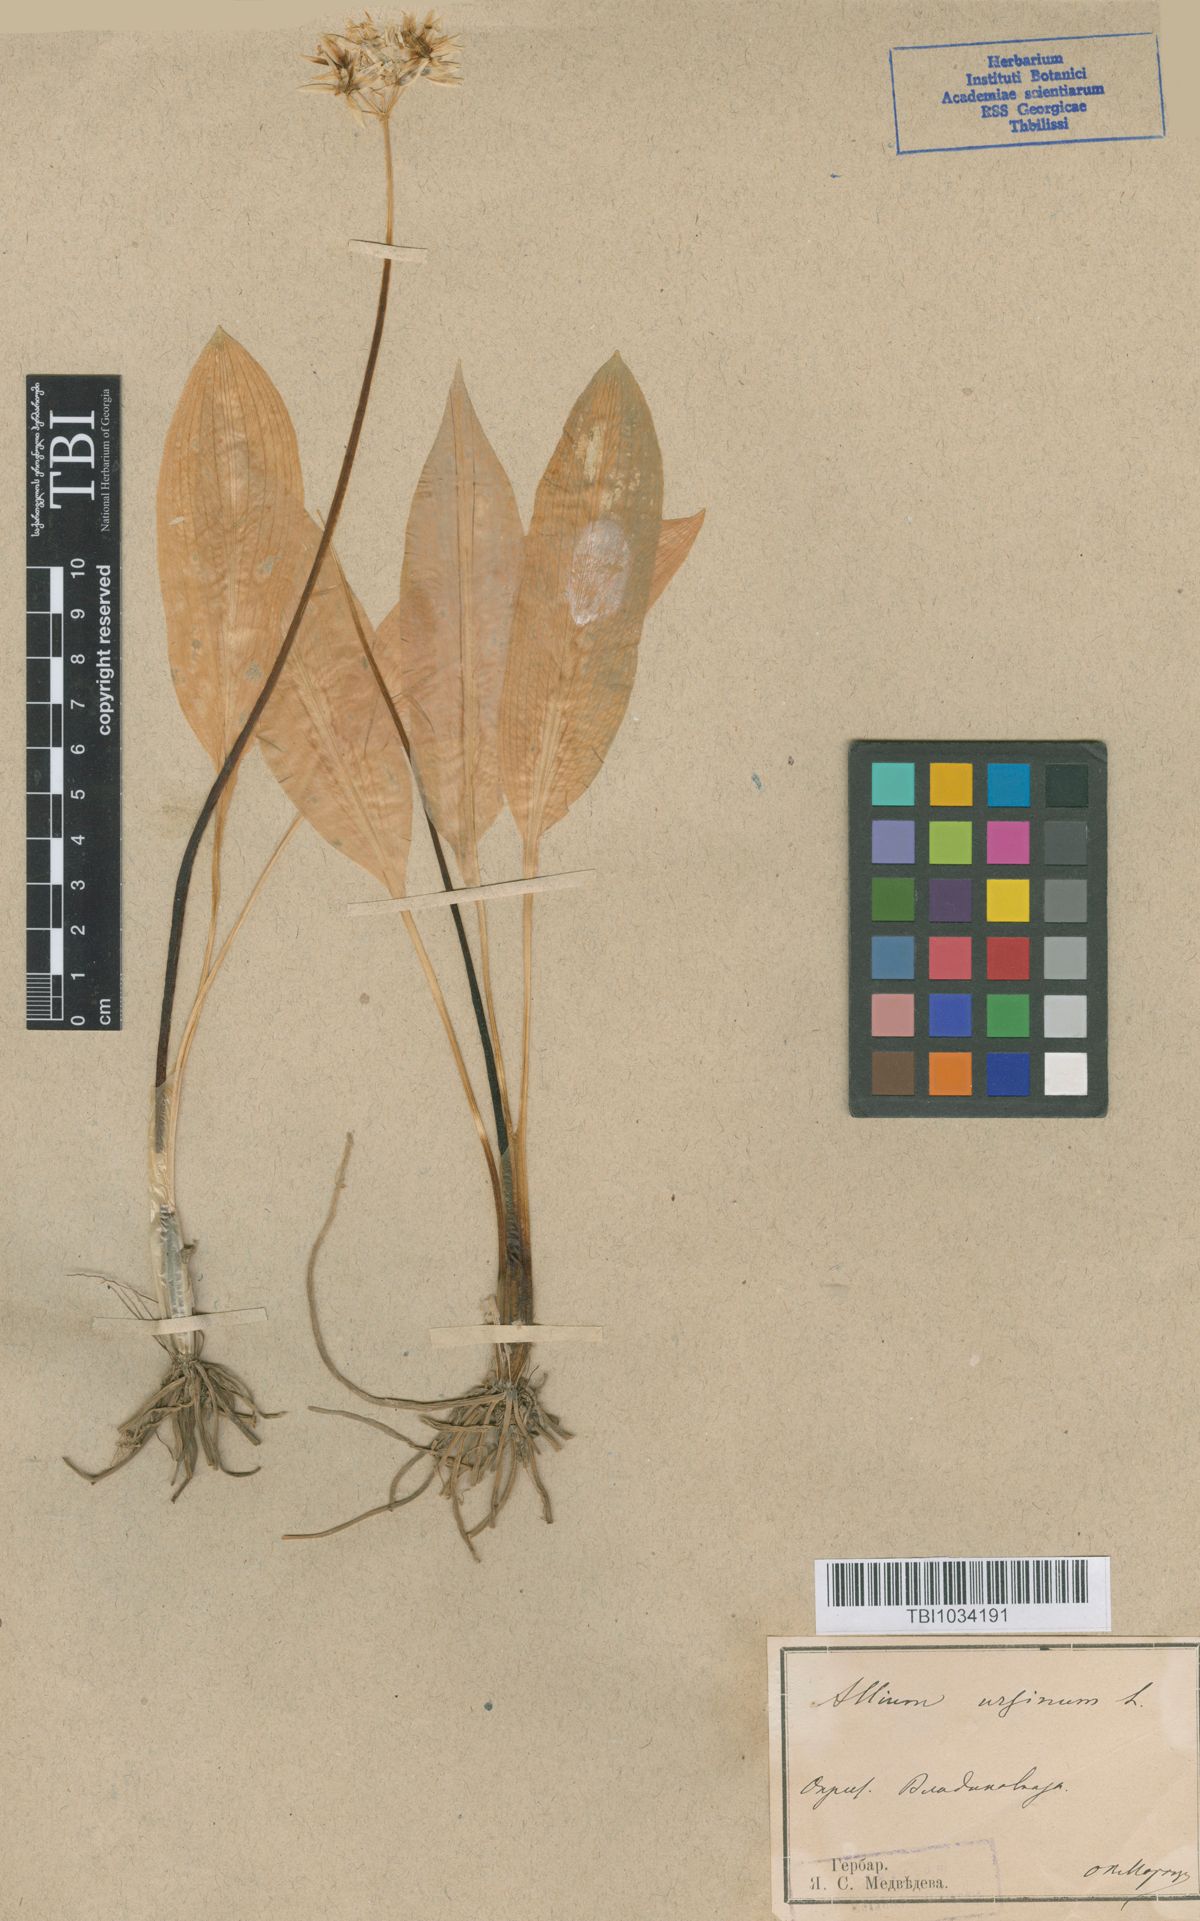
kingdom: Plantae
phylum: Tracheophyta
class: Liliopsida
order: Asparagales
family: Amaryllidaceae
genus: Allium
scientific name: Allium ursinum
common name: Ramsons
